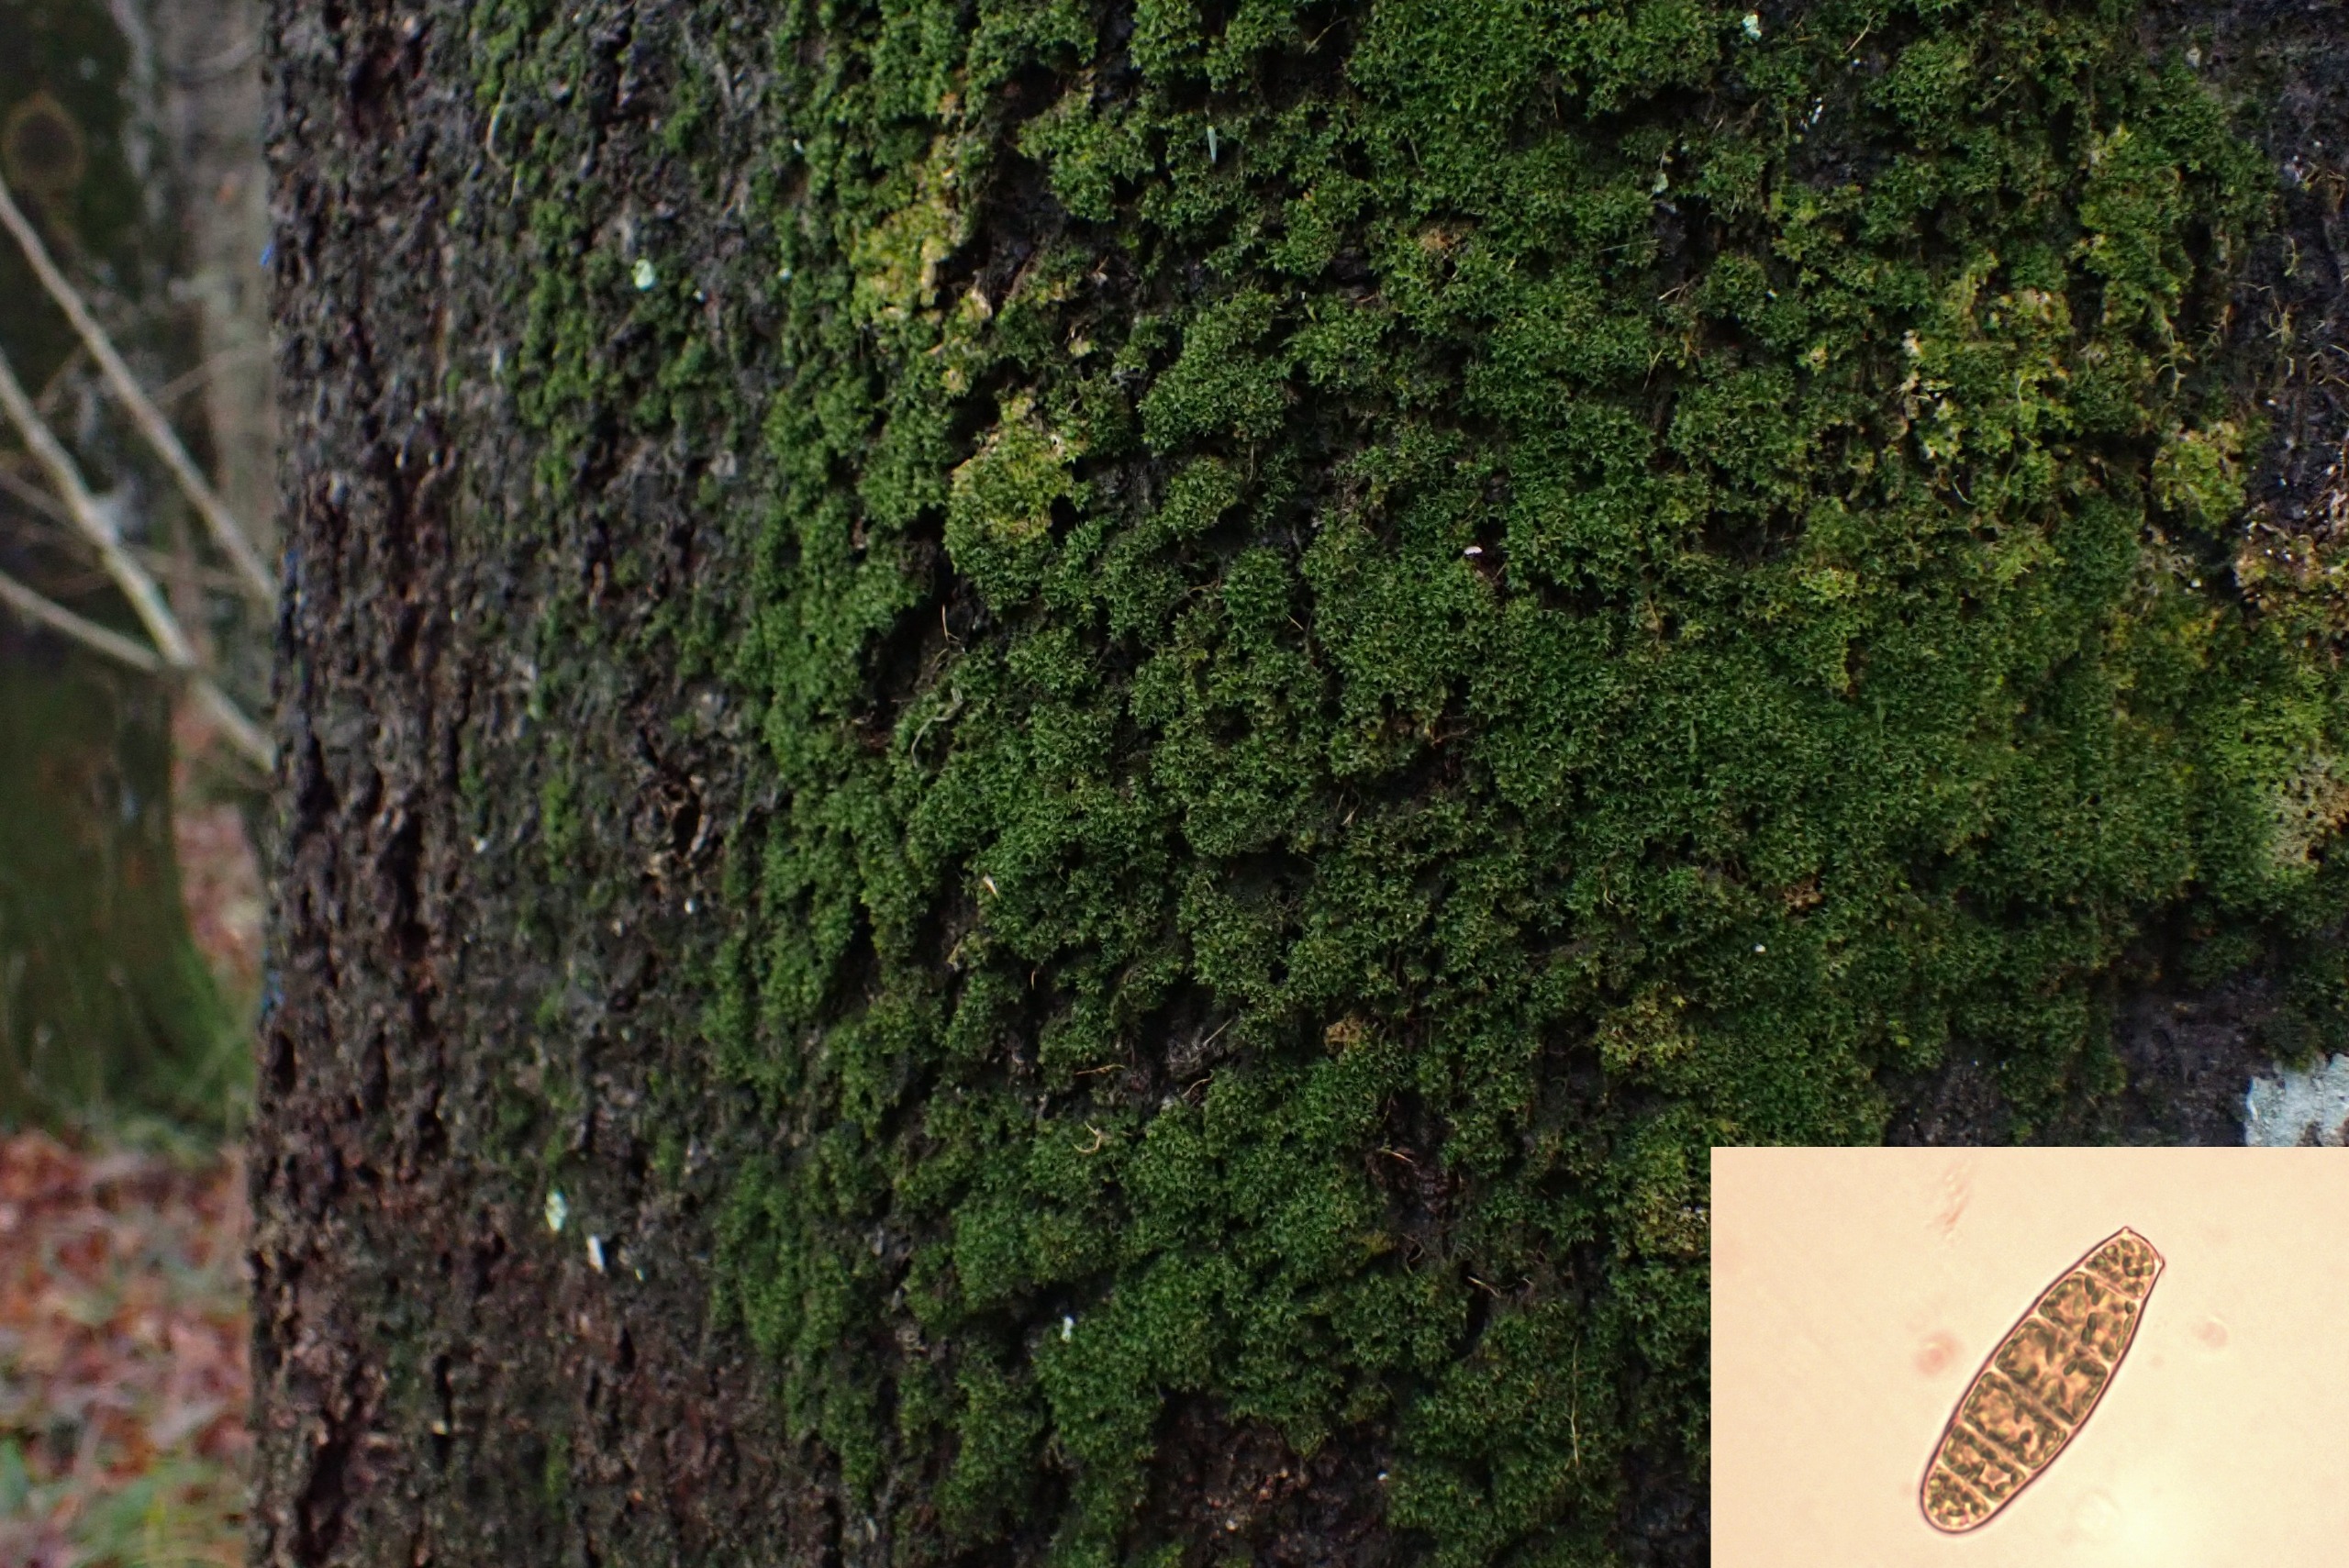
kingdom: Plantae
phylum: Bryophyta
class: Bryopsida
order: Orthotrichales
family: Orthotrichaceae
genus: Zygodon
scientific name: Zygodon conoideus
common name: Tand-køllemos
